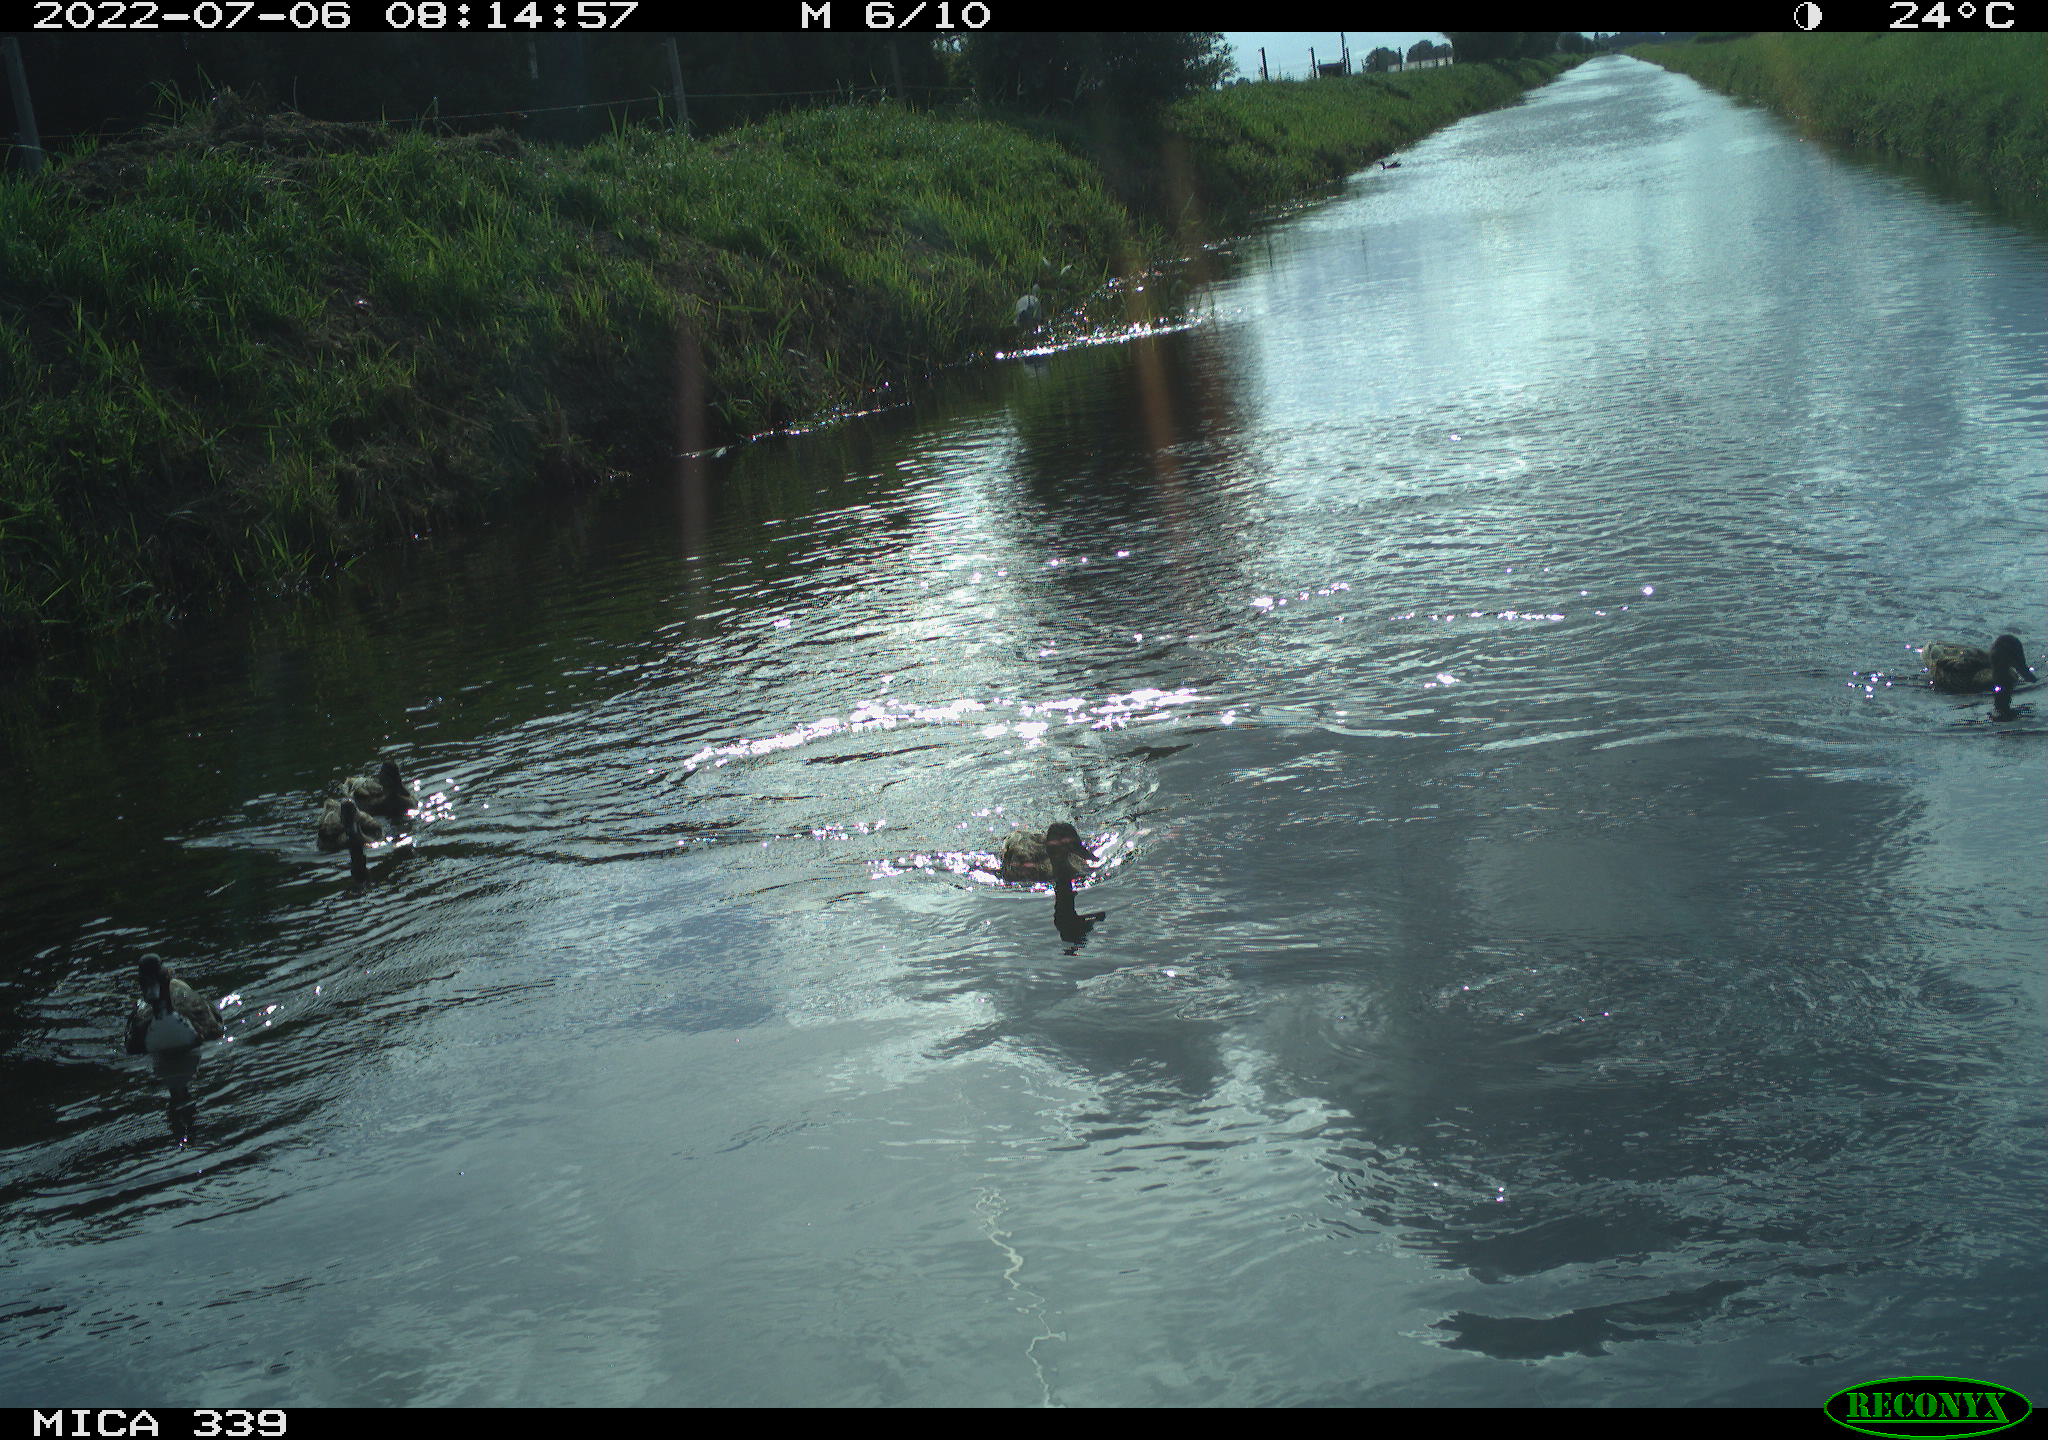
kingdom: Animalia
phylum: Chordata
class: Aves
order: Anseriformes
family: Anatidae
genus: Anas
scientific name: Anas platyrhynchos
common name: Mallard
